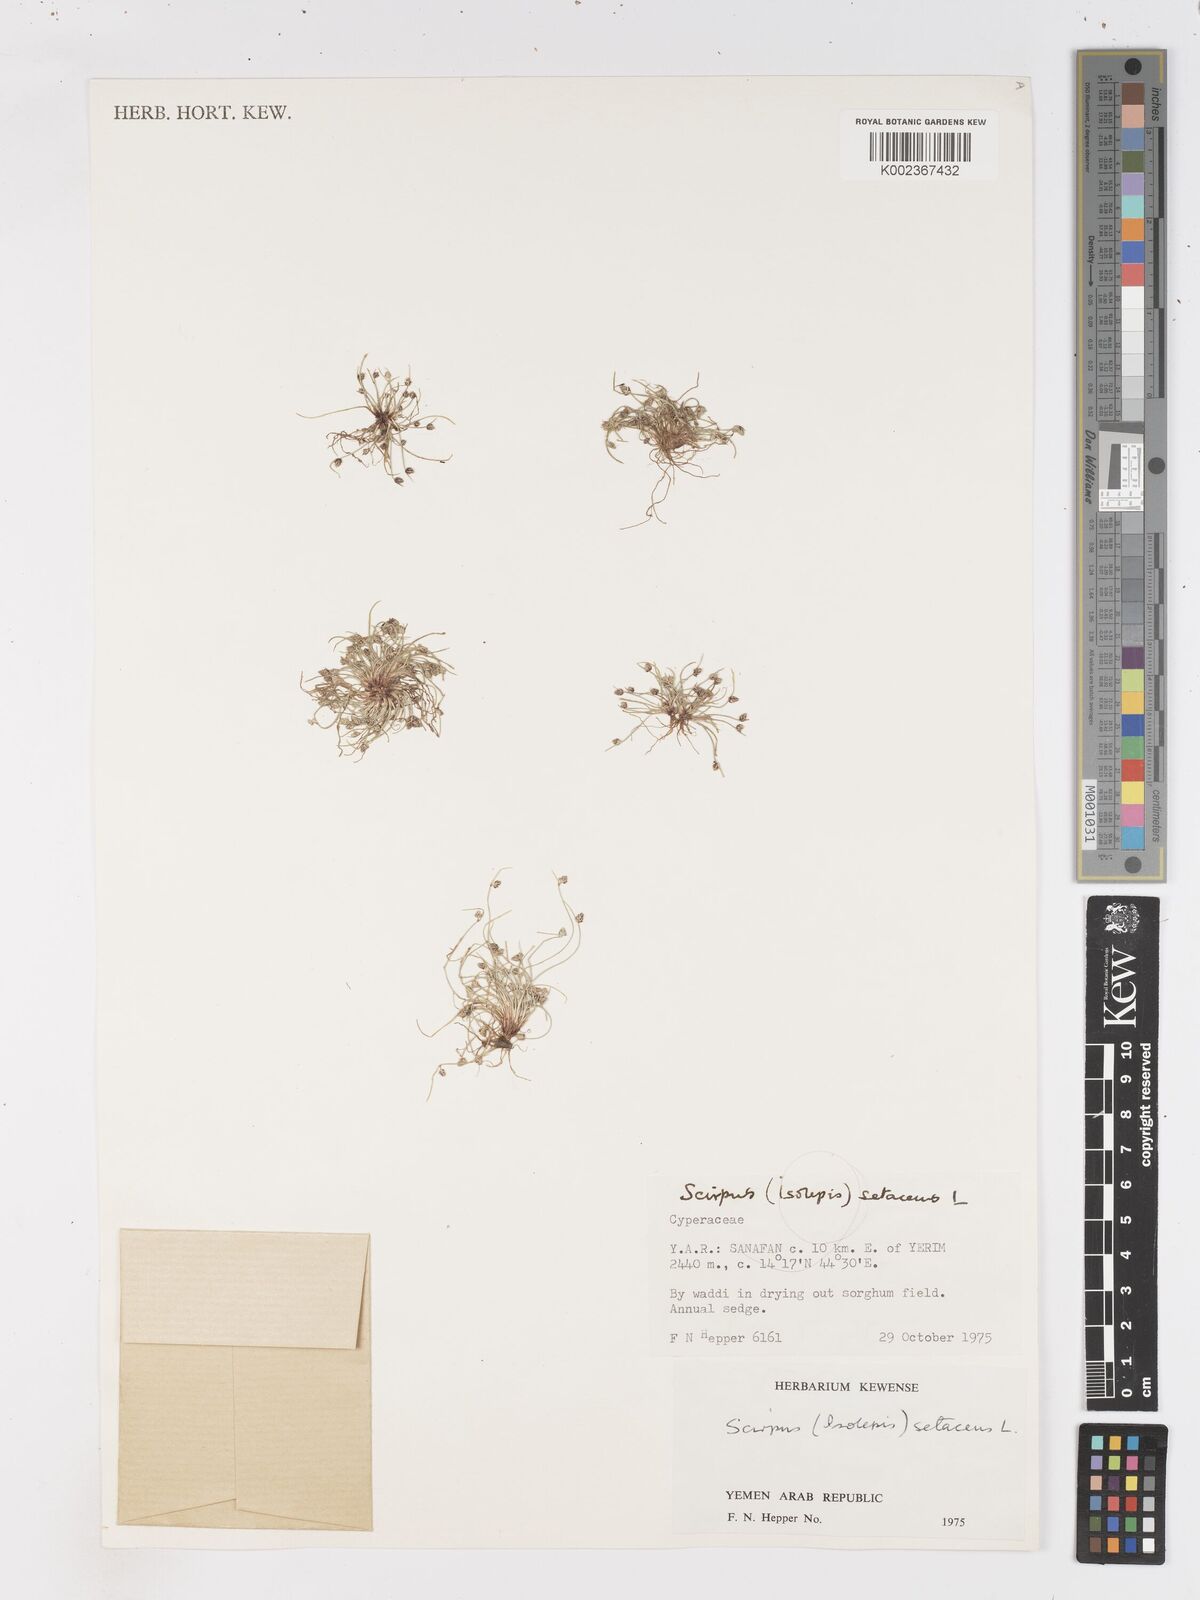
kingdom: Plantae
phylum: Tracheophyta
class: Liliopsida
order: Poales
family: Cyperaceae
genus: Isolepis
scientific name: Isolepis setacea
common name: Bristle club-rush
